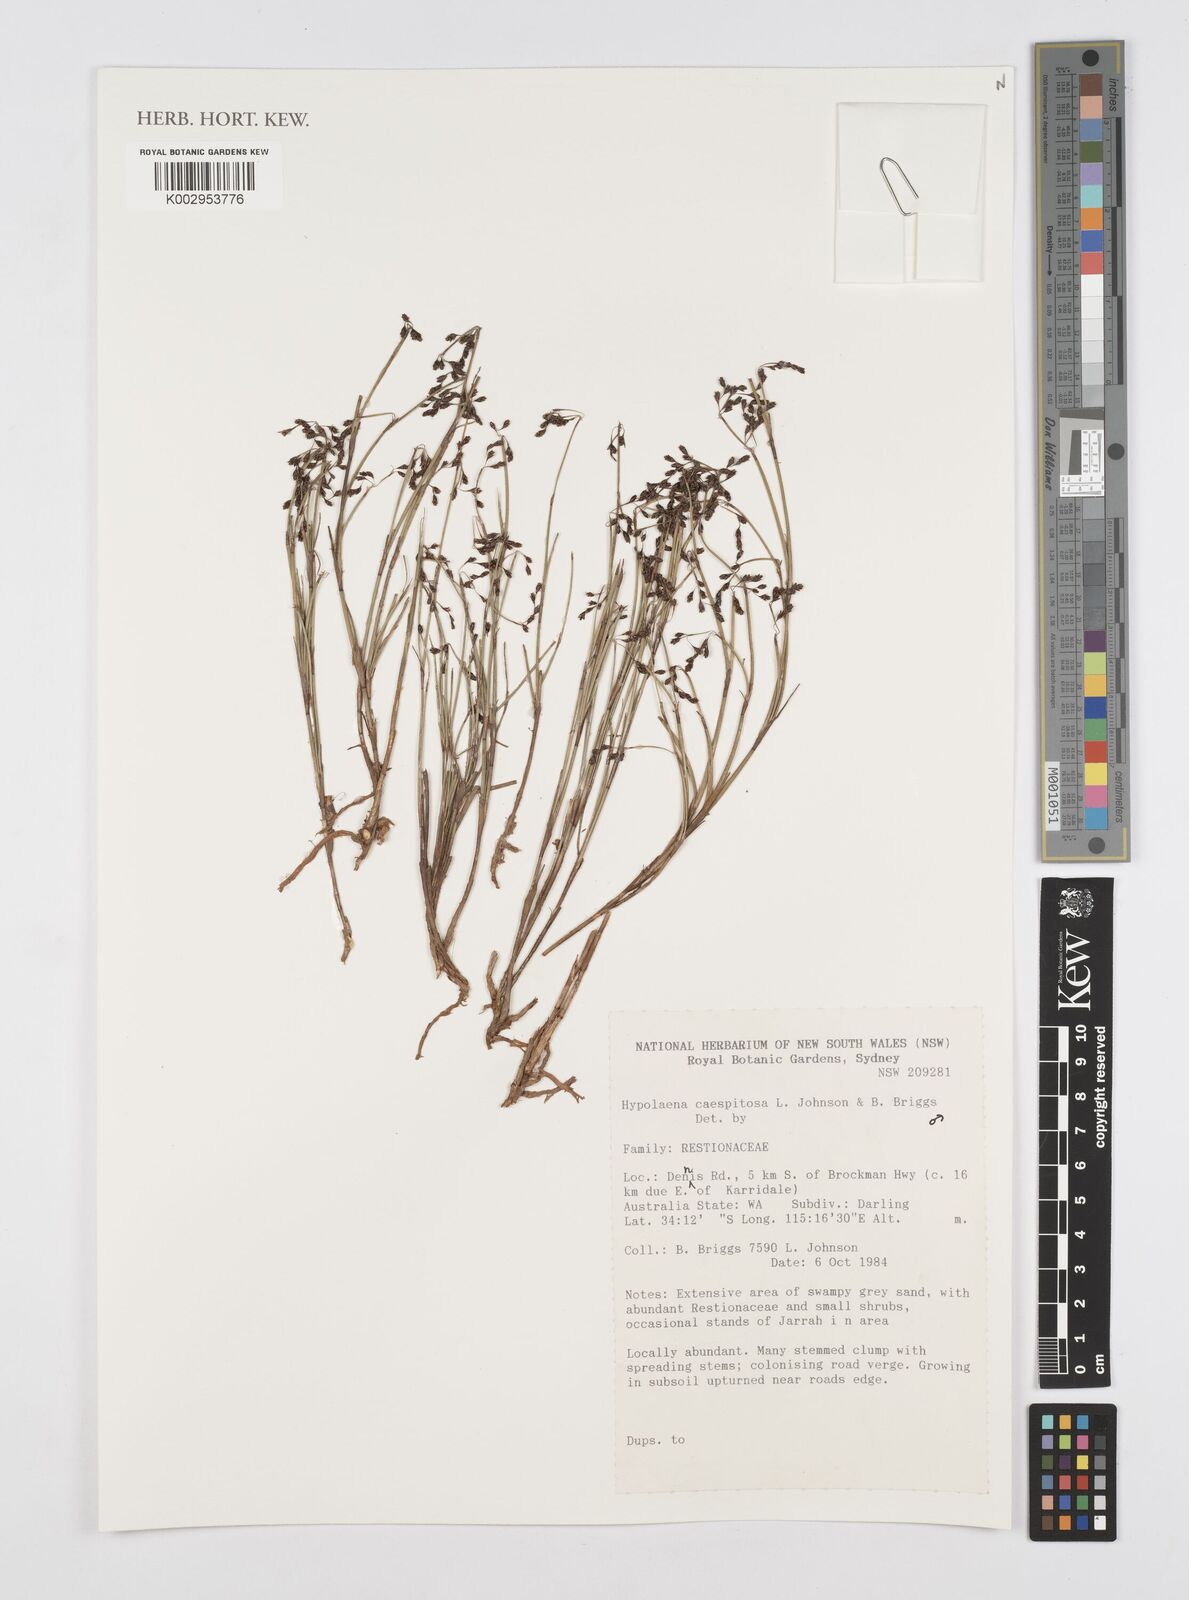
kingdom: Plantae
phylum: Tracheophyta
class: Liliopsida
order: Poales
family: Restionaceae
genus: Hypolaena
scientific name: Hypolaena caespitosa
